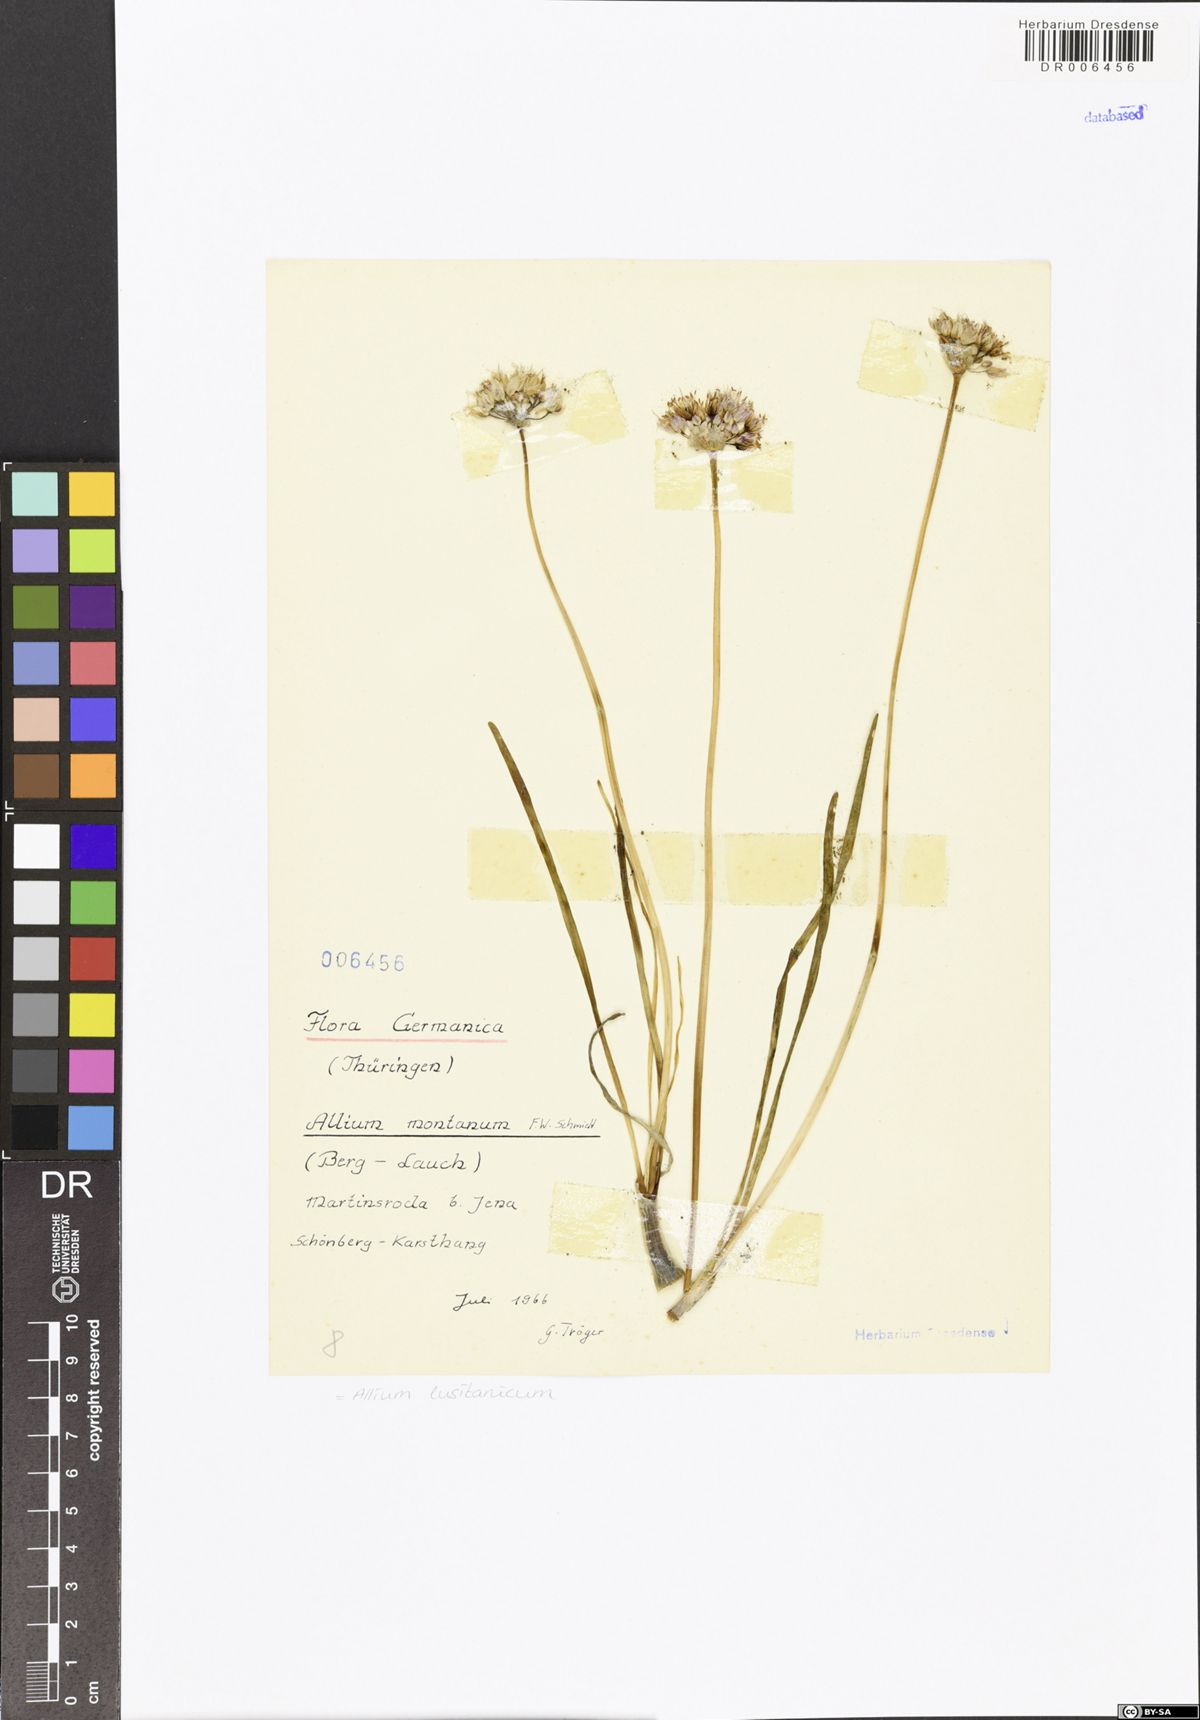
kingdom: Plantae
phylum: Tracheophyta
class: Liliopsida
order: Asparagales
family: Amaryllidaceae
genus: Allium
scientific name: Allium lusitanicum
